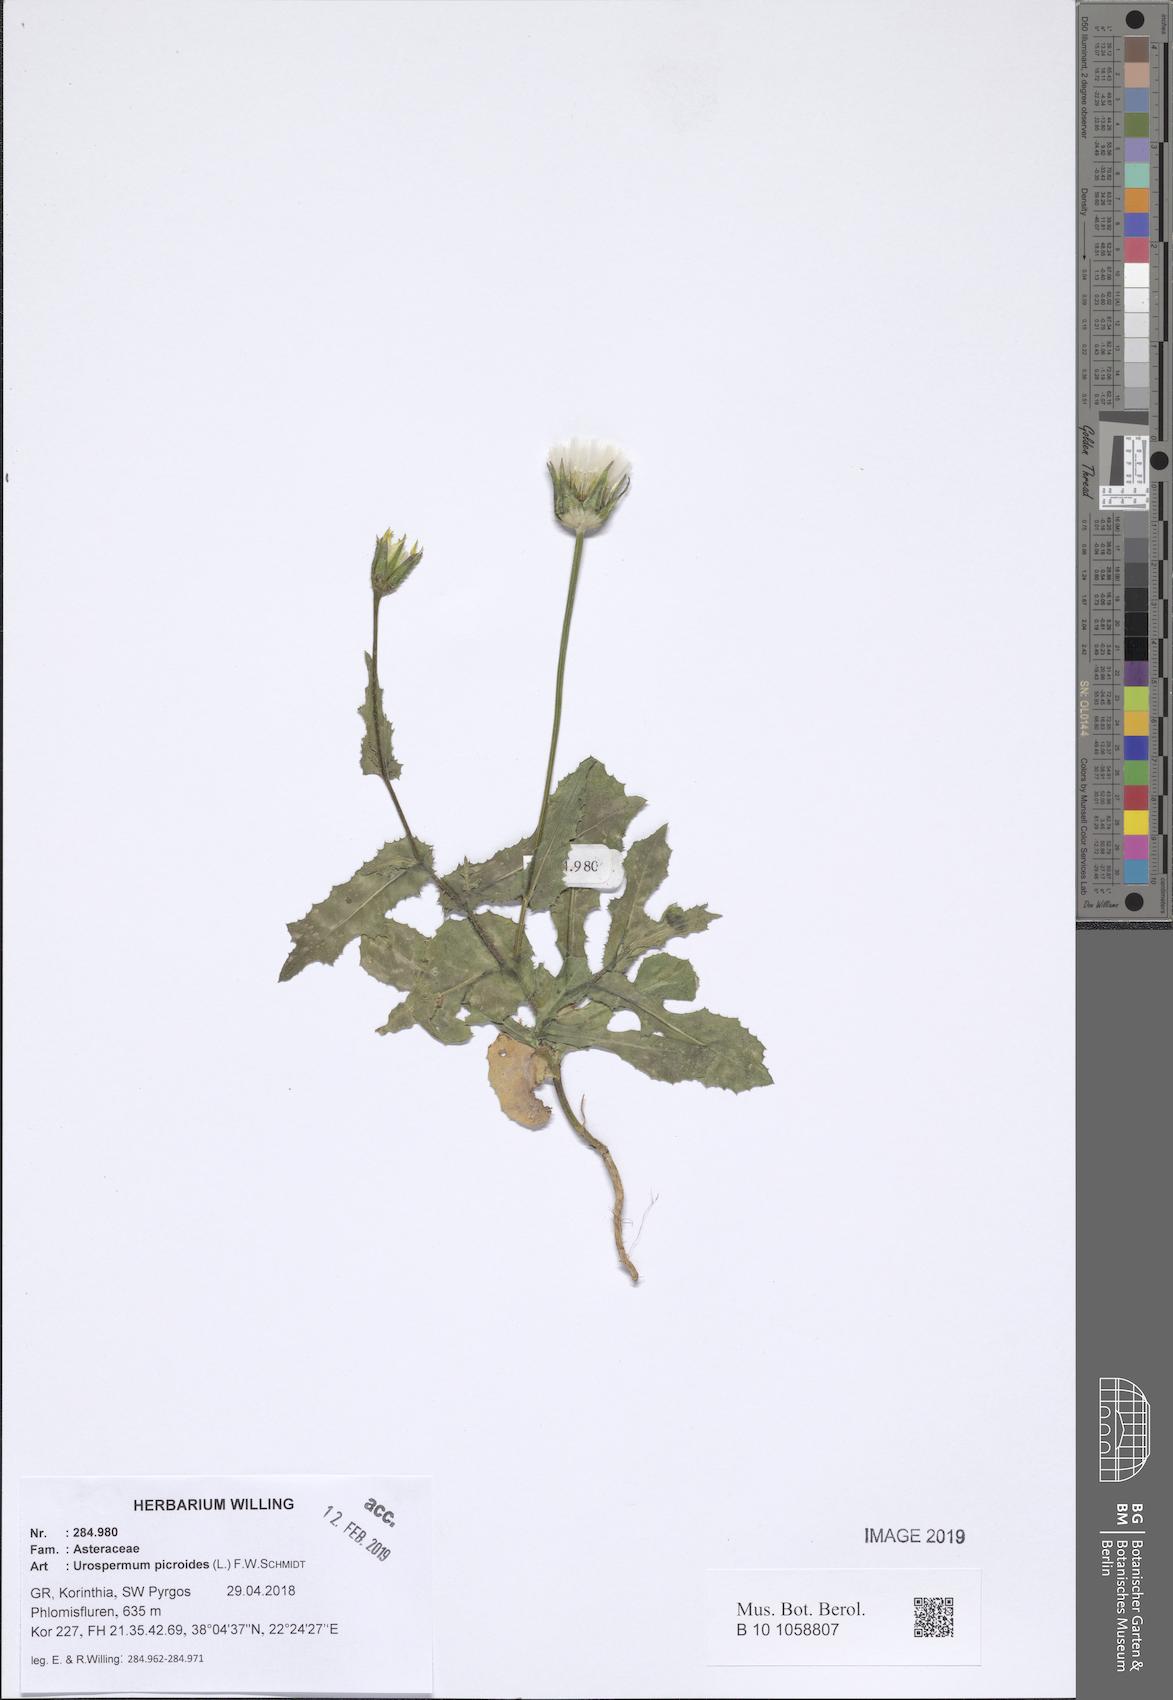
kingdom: Plantae
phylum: Tracheophyta
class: Magnoliopsida
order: Asterales
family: Asteraceae
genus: Urospermum
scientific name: Urospermum picroides
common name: False hawkbit
